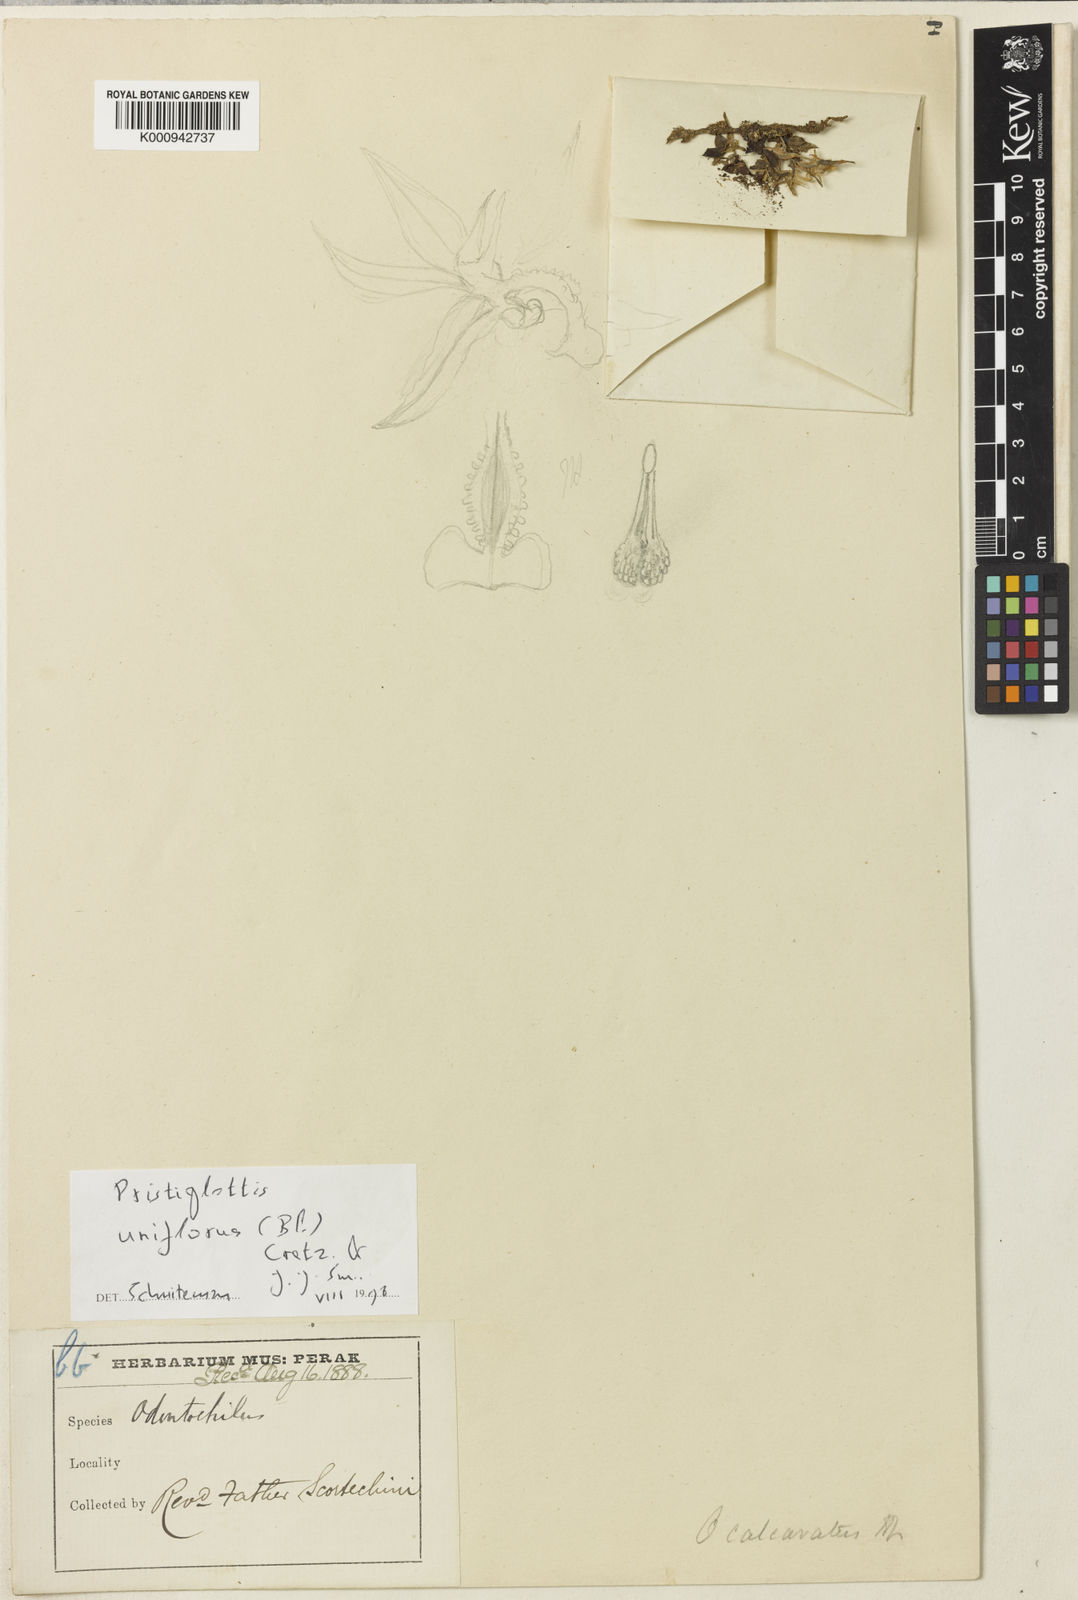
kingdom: Plantae
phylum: Tracheophyta
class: Liliopsida
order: Asparagales
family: Orchidaceae
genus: Odontochilus
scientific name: Odontochilus uniflorus
